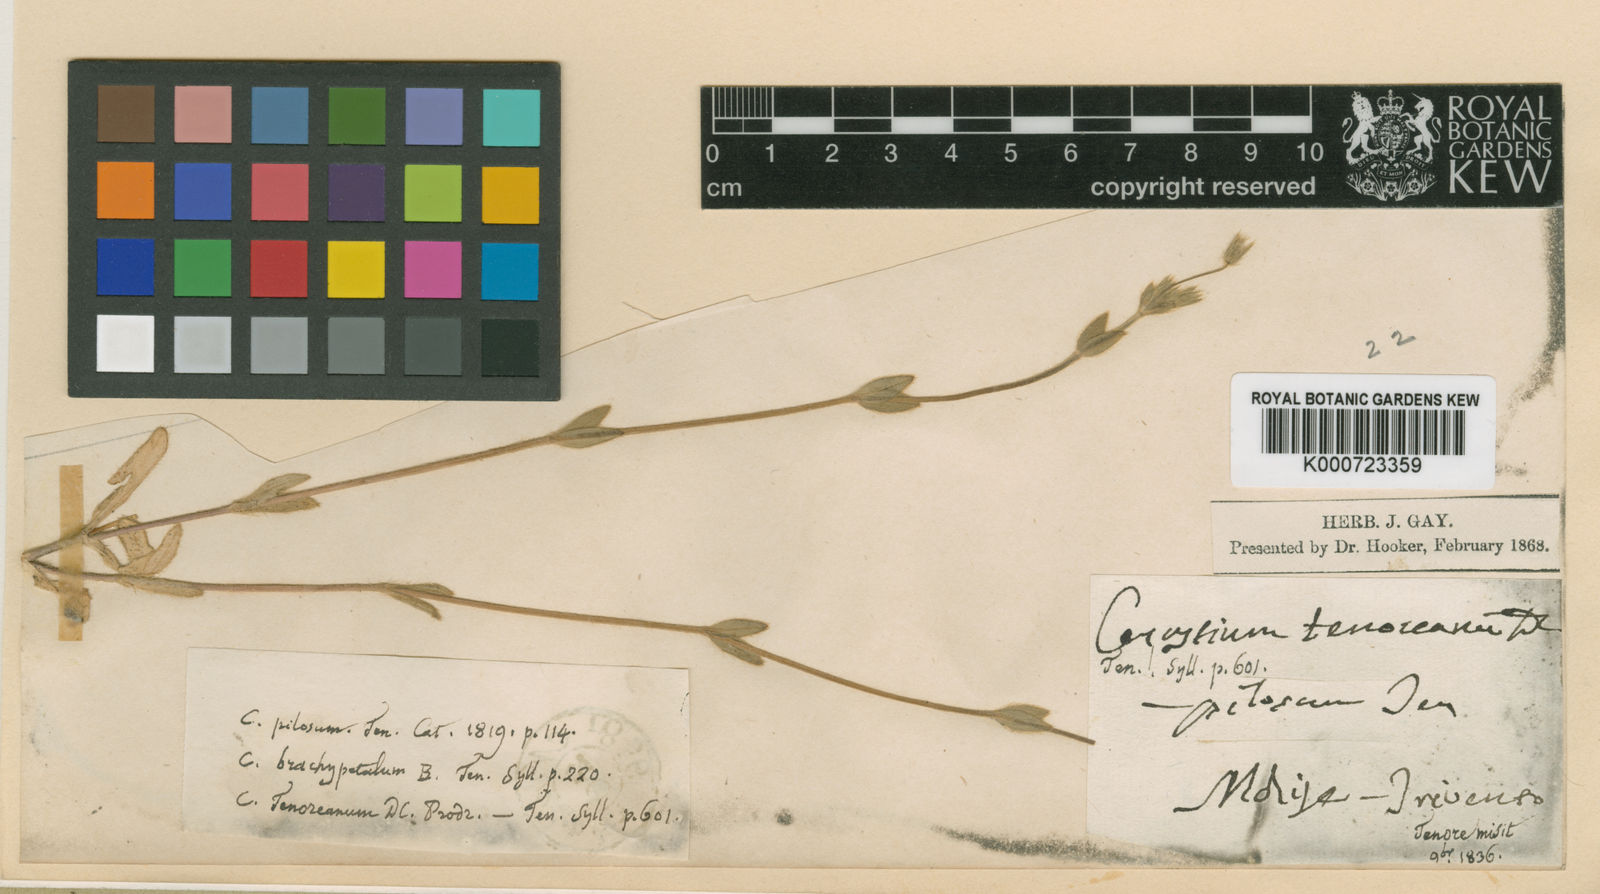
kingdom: Plantae
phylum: Tracheophyta
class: Magnoliopsida
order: Caryophyllales
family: Caryophyllaceae
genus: Cerastium
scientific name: Cerastium
